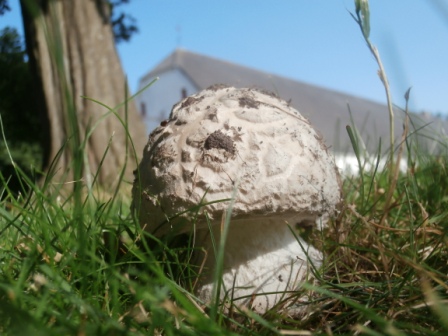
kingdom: Fungi
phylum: Basidiomycota
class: Agaricomycetes
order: Agaricales
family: Amanitaceae
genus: Amanita
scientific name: Amanita
